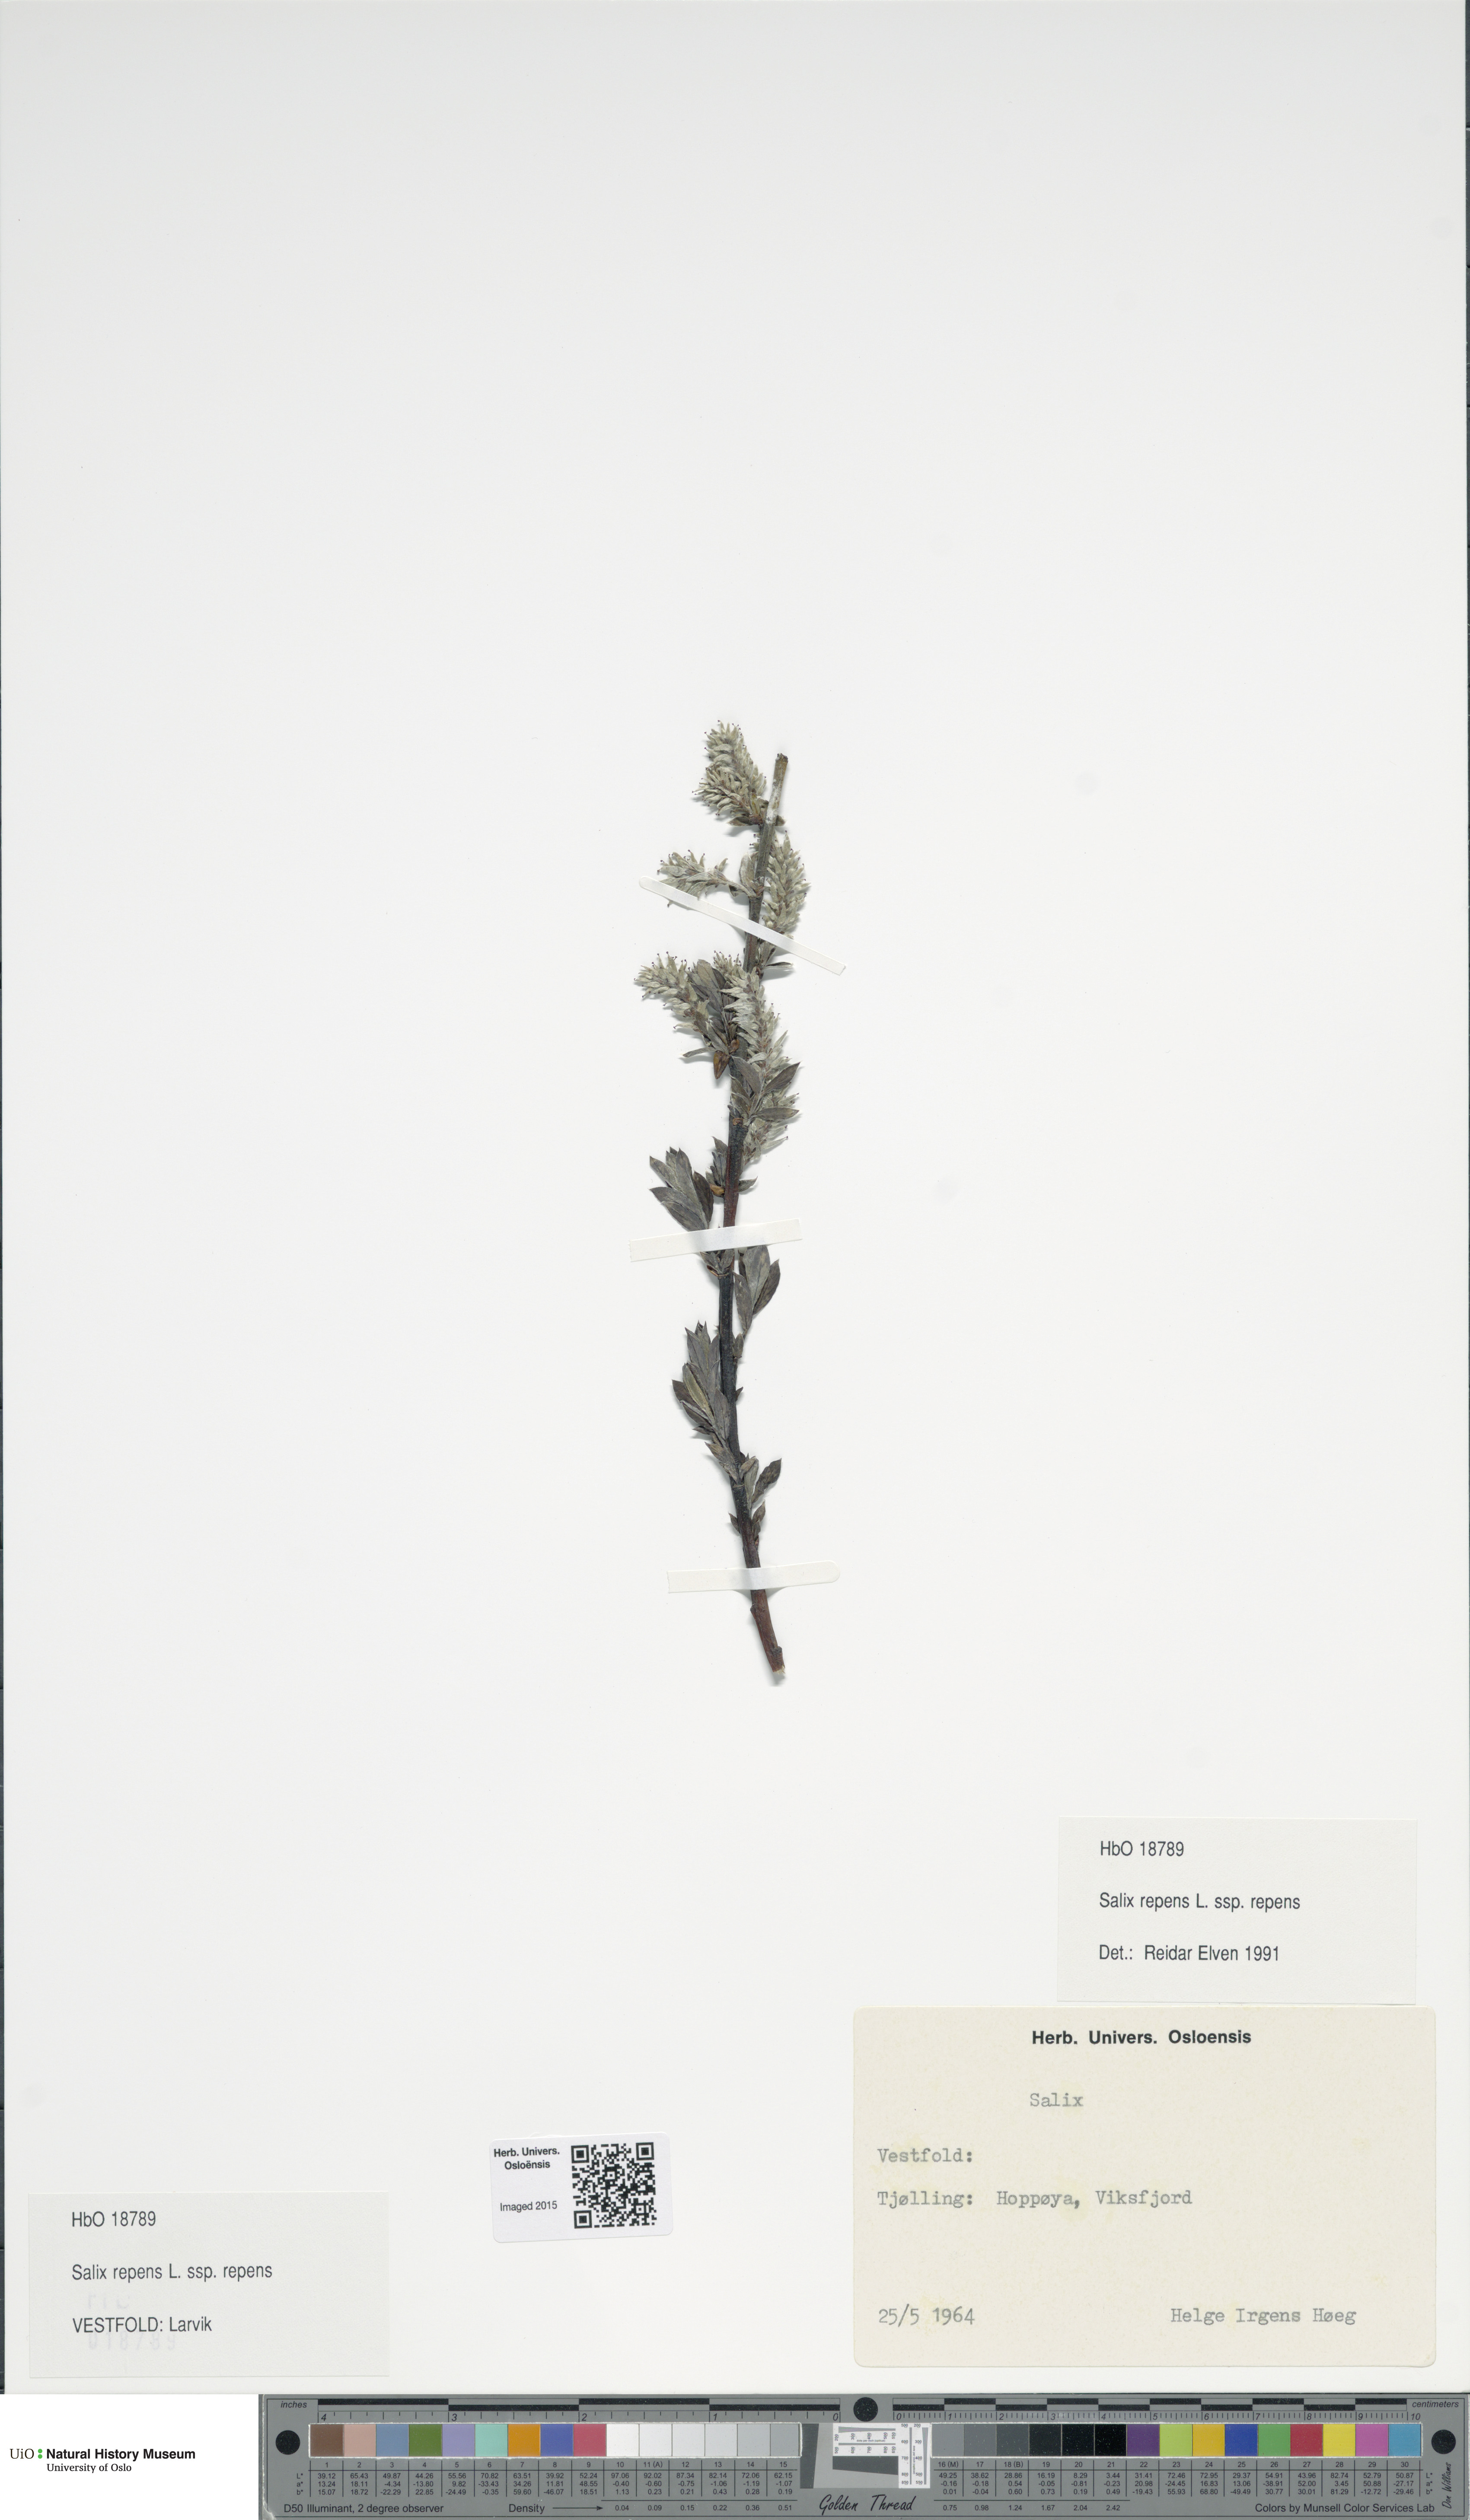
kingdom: Plantae
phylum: Tracheophyta
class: Magnoliopsida
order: Malpighiales
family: Salicaceae
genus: Salix
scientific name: Salix repens
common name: Creeping willow
